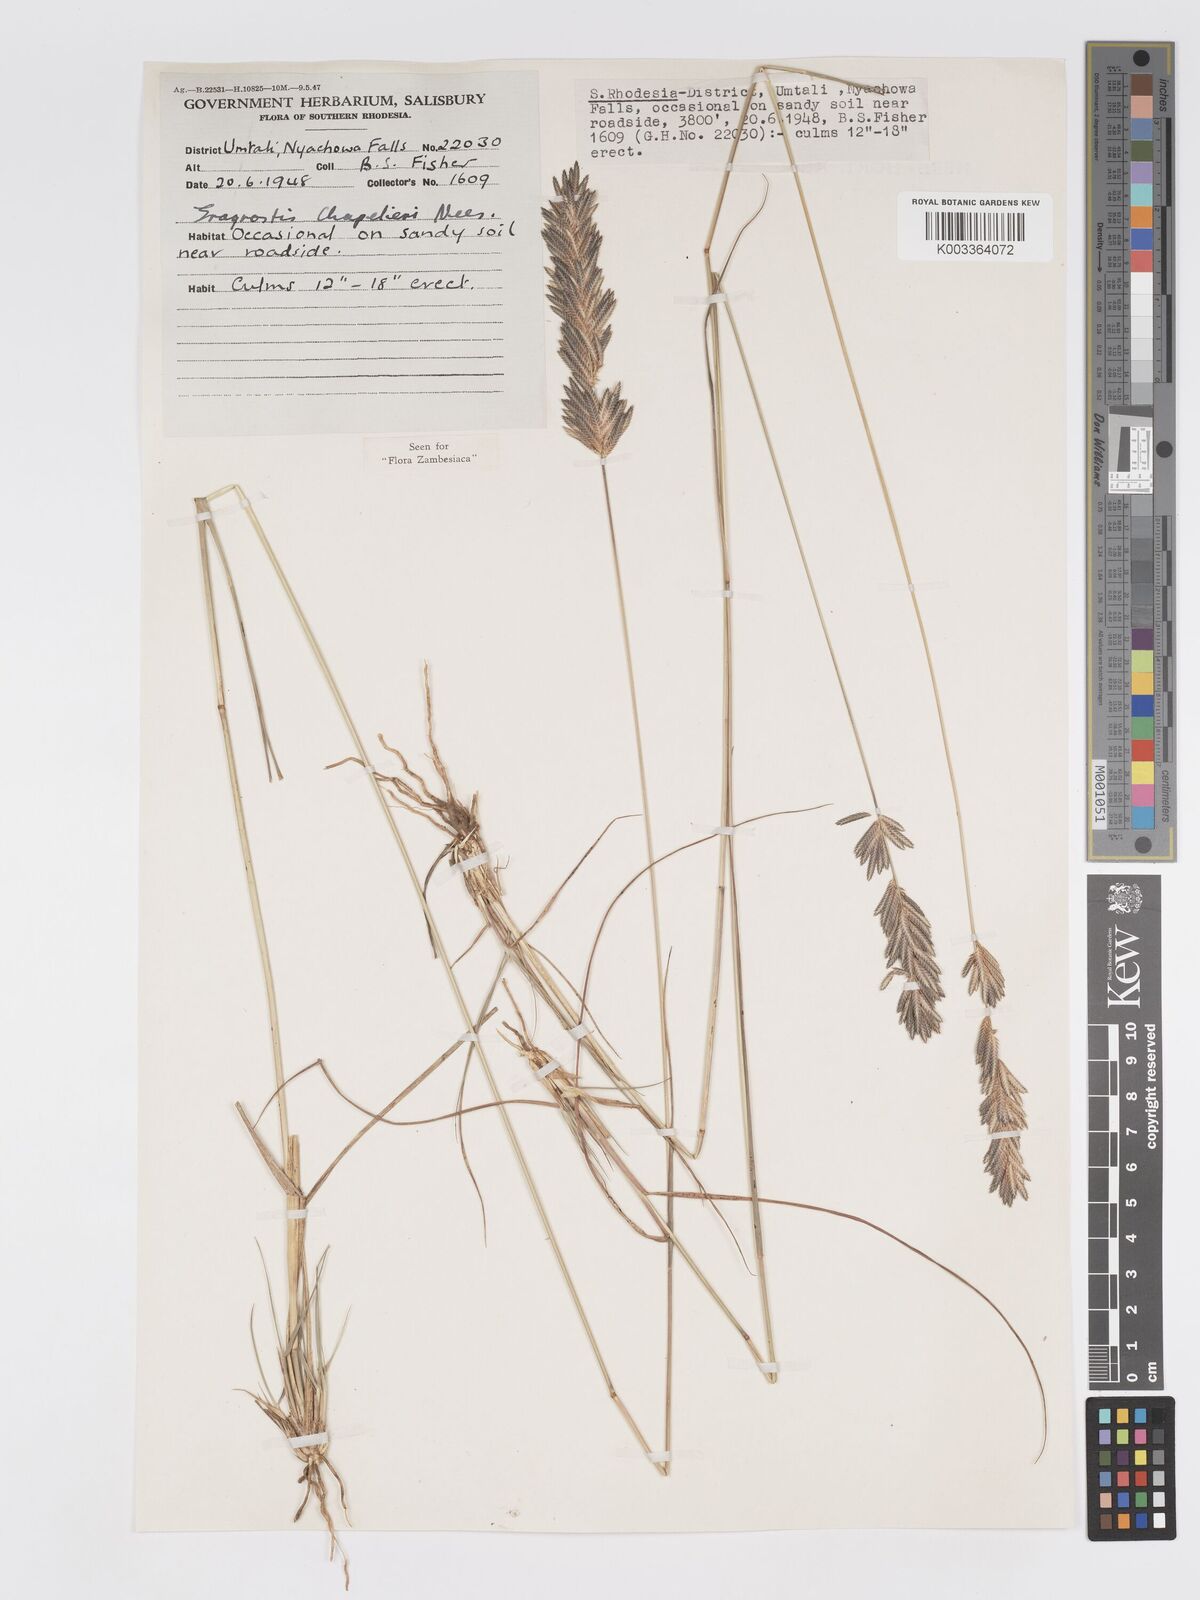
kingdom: Plantae
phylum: Tracheophyta
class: Liliopsida
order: Poales
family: Poaceae
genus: Eragrostis
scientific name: Eragrostis chapelieri
